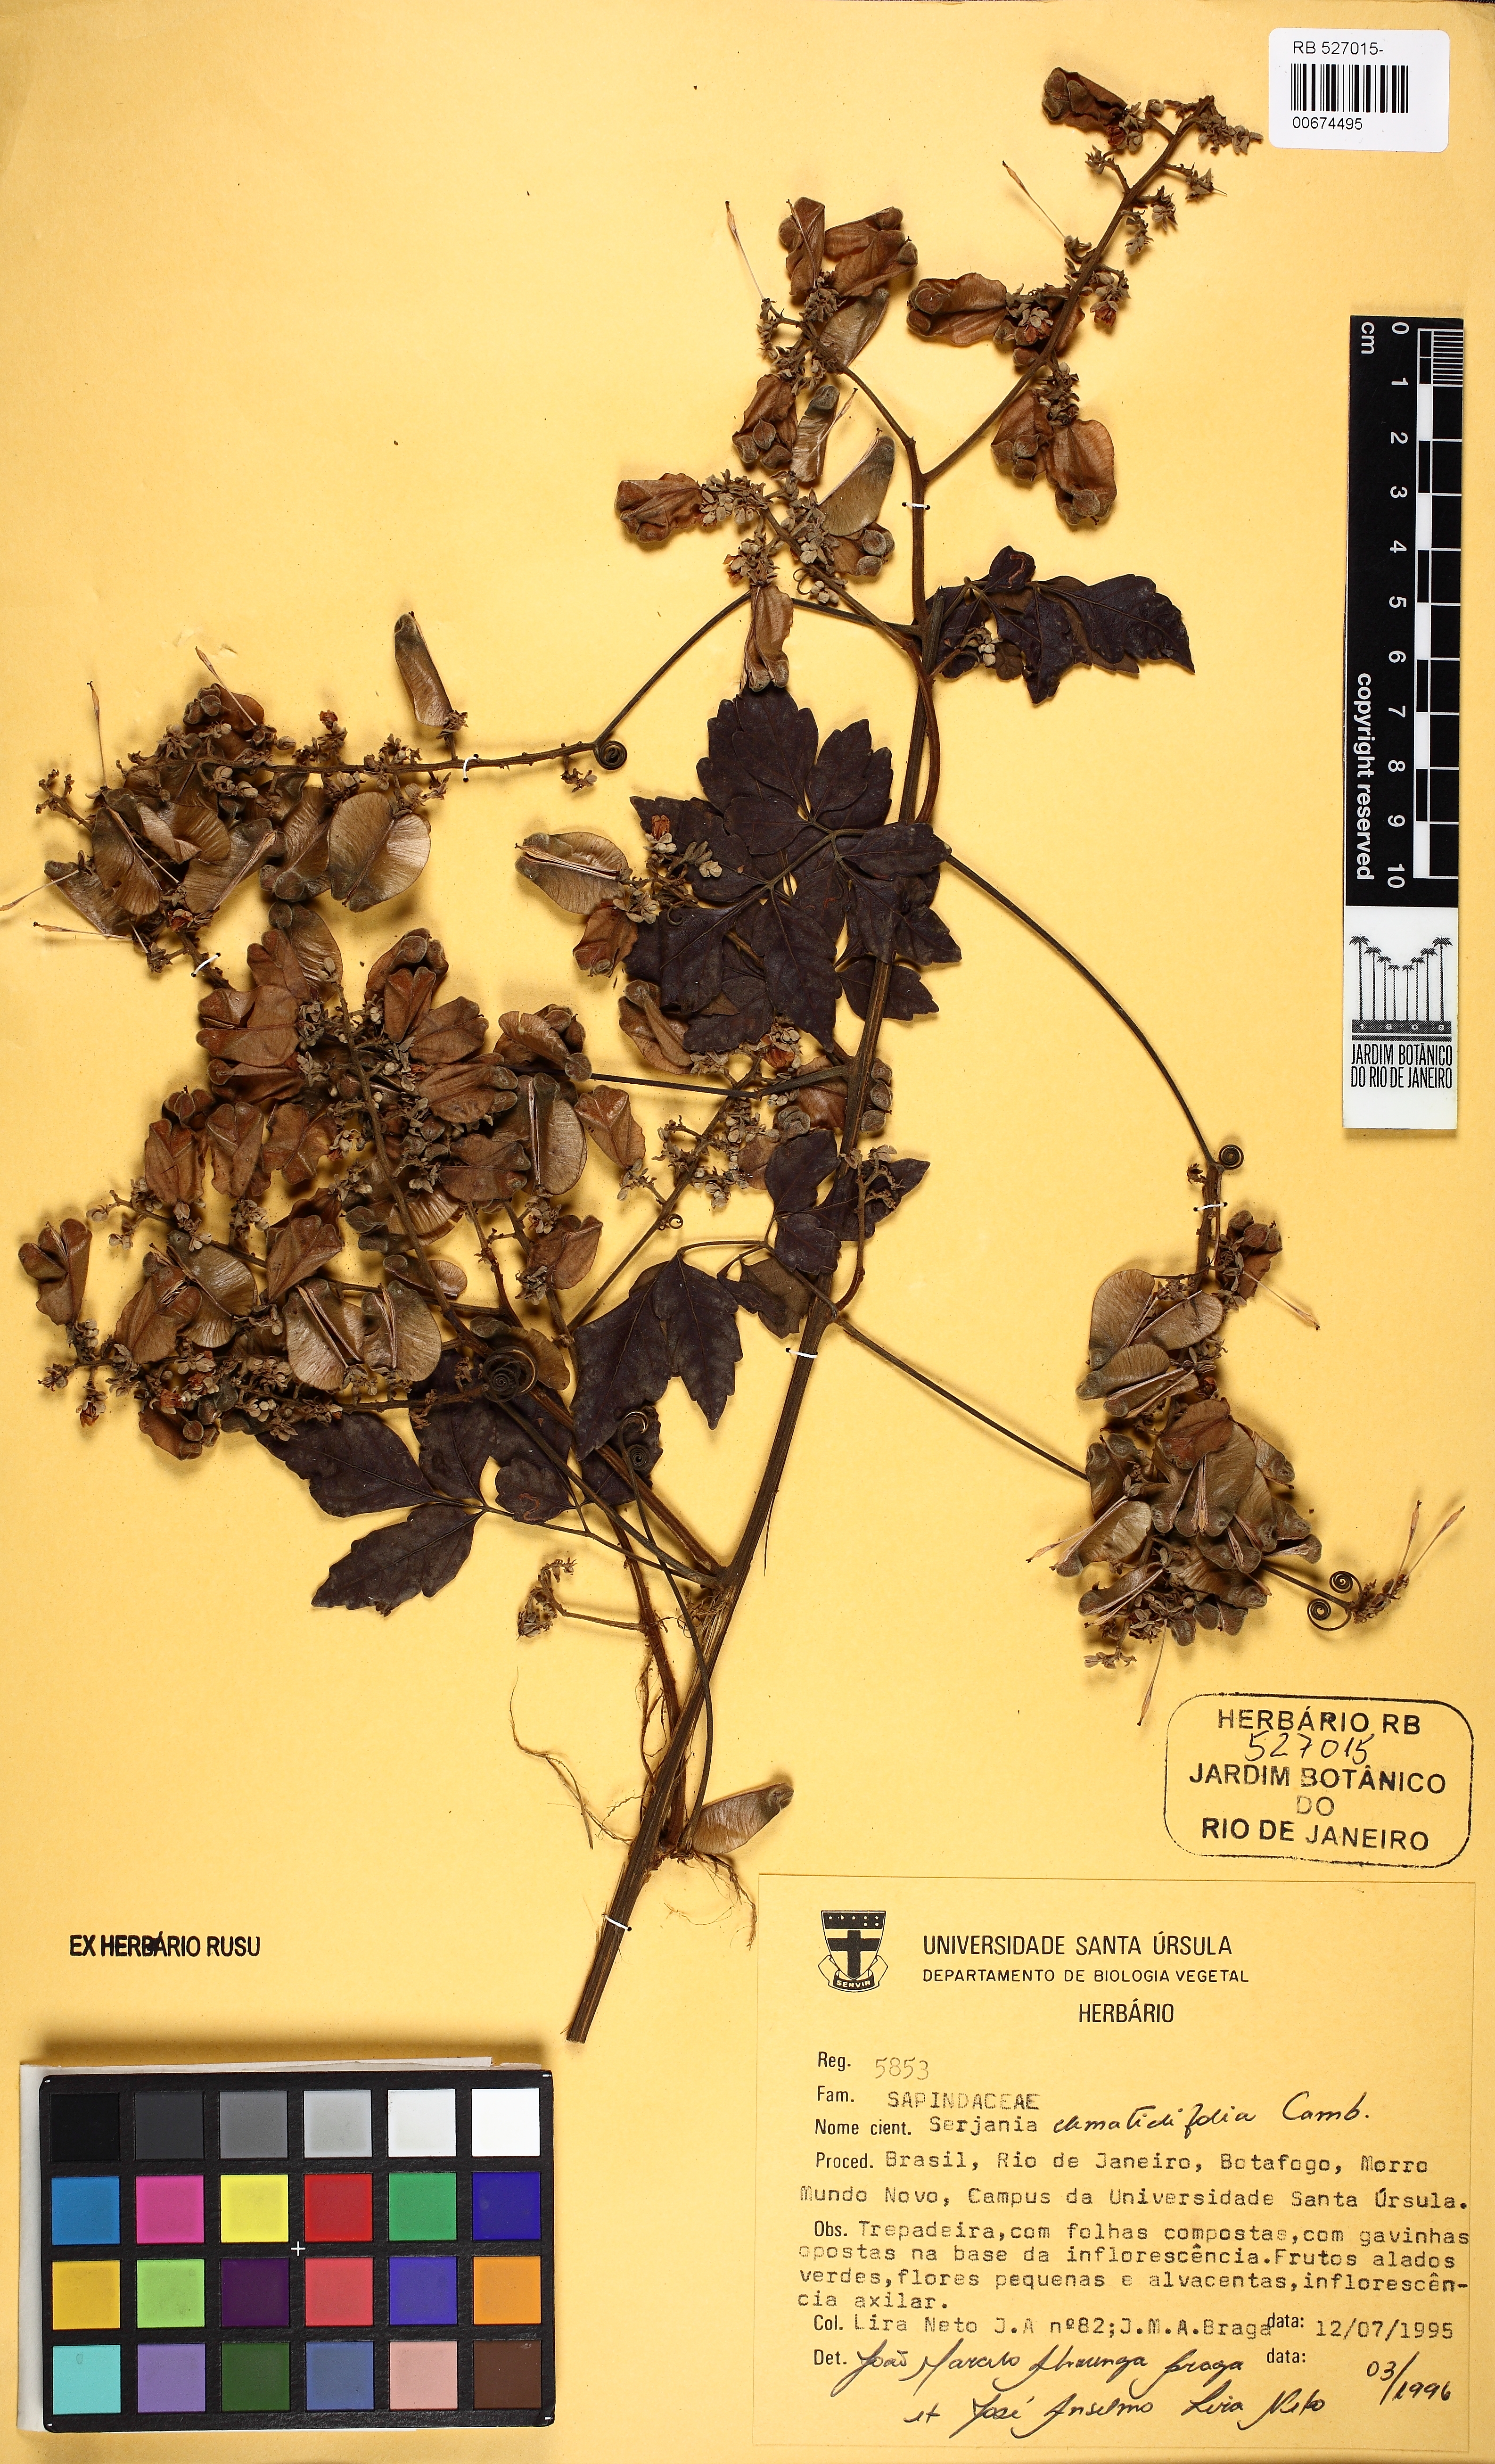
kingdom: Plantae
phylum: Tracheophyta
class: Magnoliopsida
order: Sapindales
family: Sapindaceae
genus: Serjania
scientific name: Serjania clematidifolia
